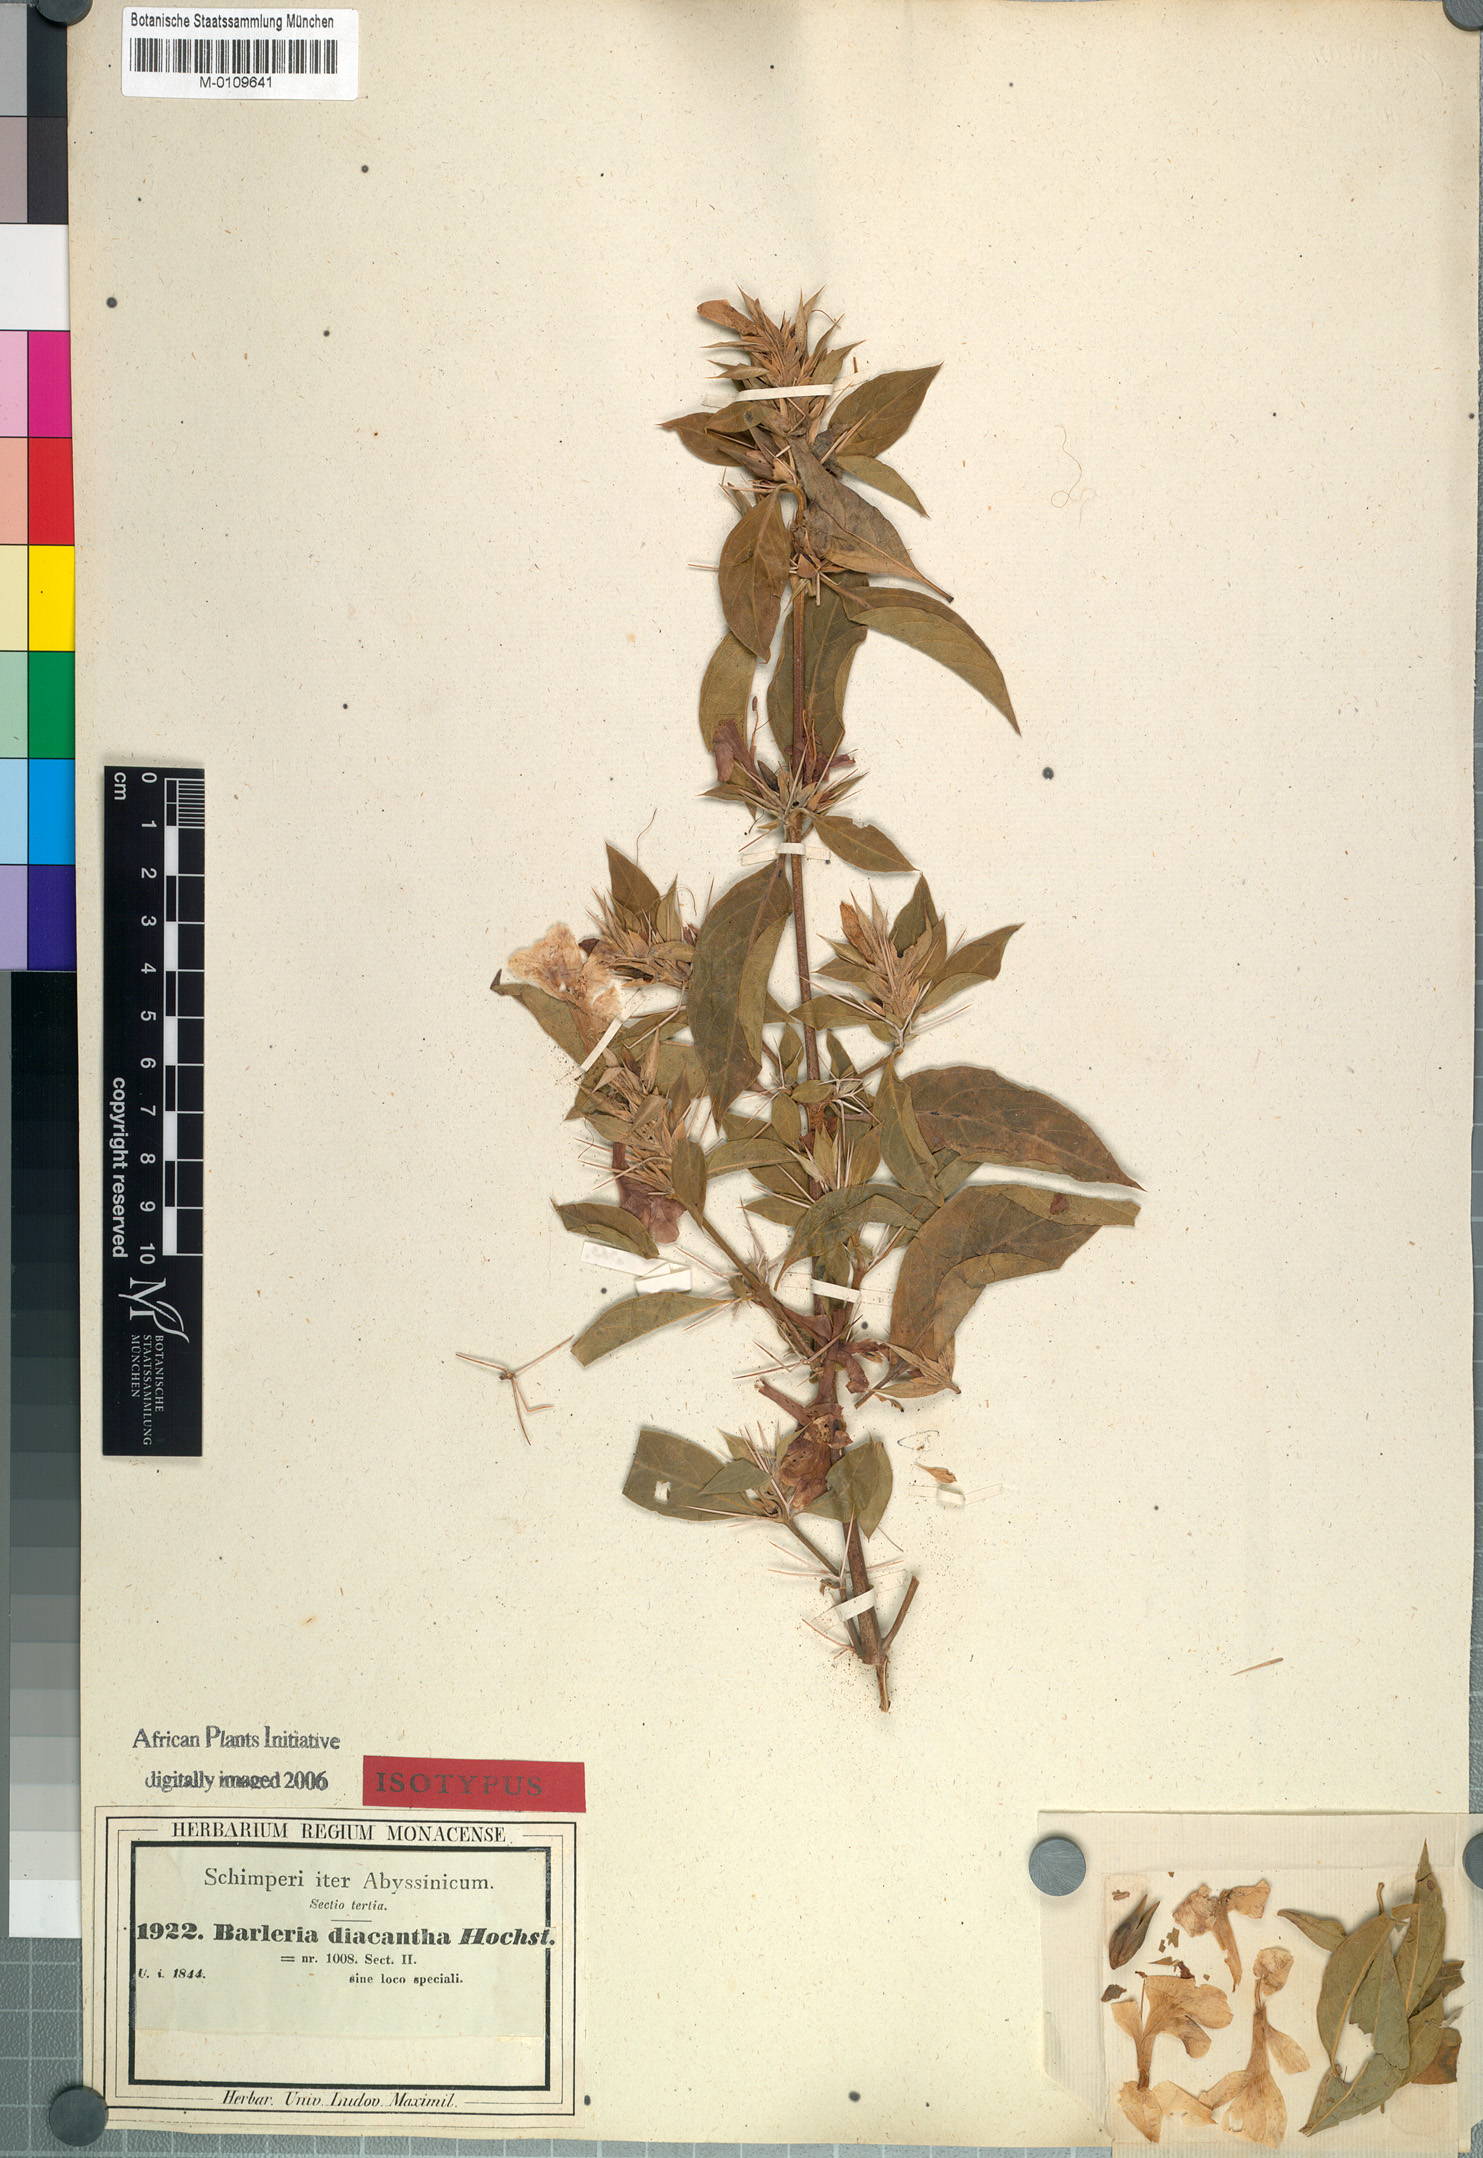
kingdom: Plantae
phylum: Tracheophyta
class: Magnoliopsida
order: Lamiales
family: Acanthaceae
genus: Barleria
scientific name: Barleria trispinosa
